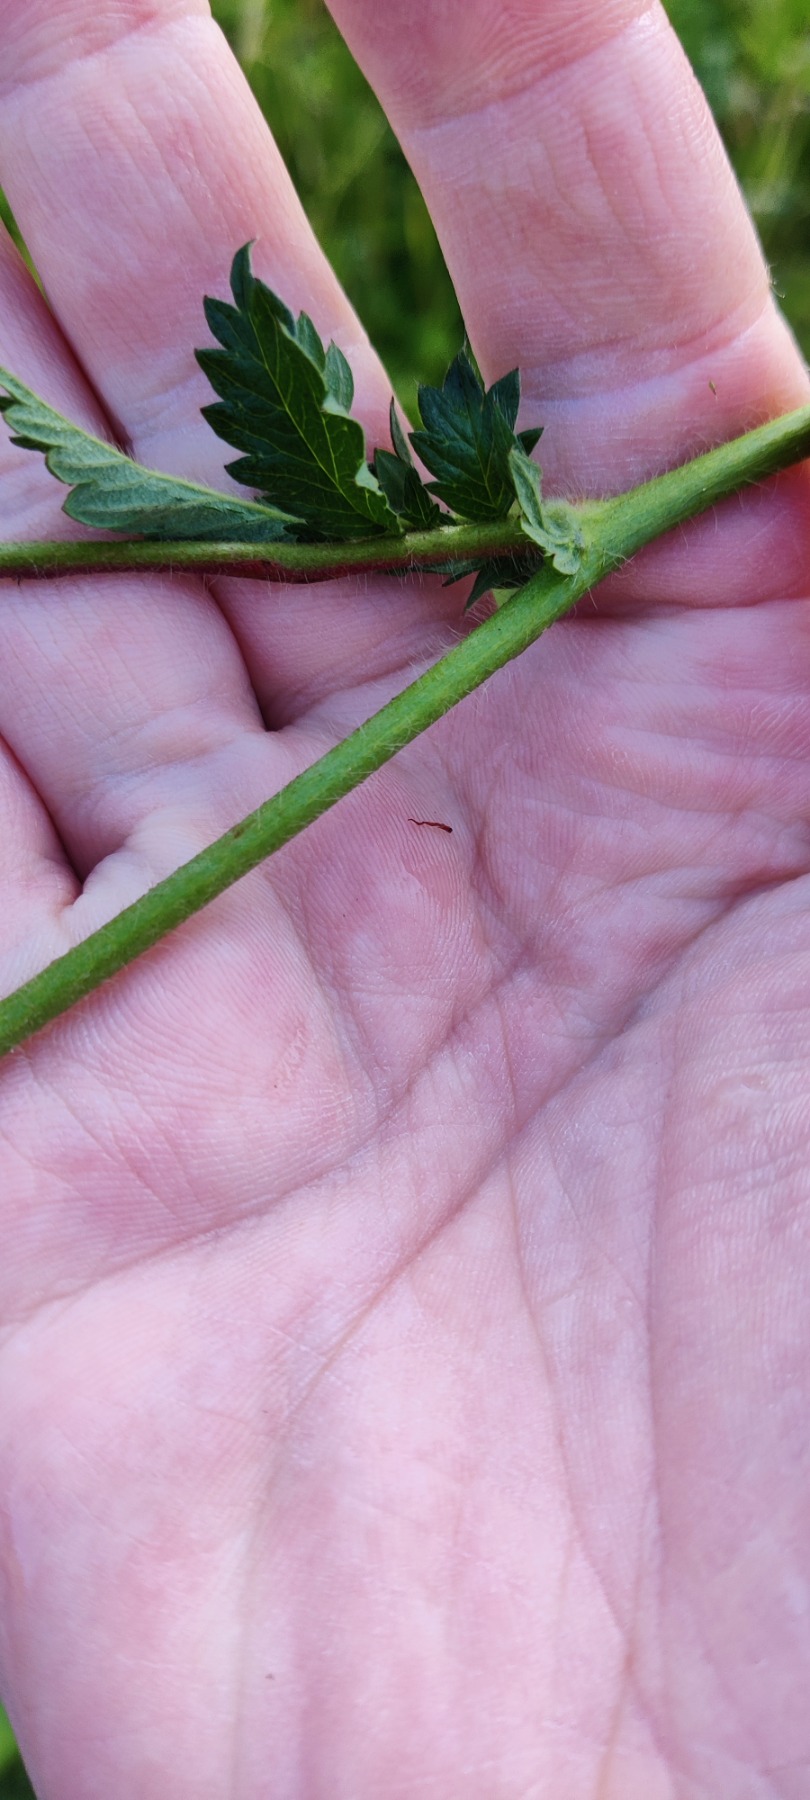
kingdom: Plantae
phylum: Tracheophyta
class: Magnoliopsida
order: Rosales
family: Rosaceae
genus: Agrimonia
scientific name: Agrimonia eupatoria
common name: Almindelig agermåne
